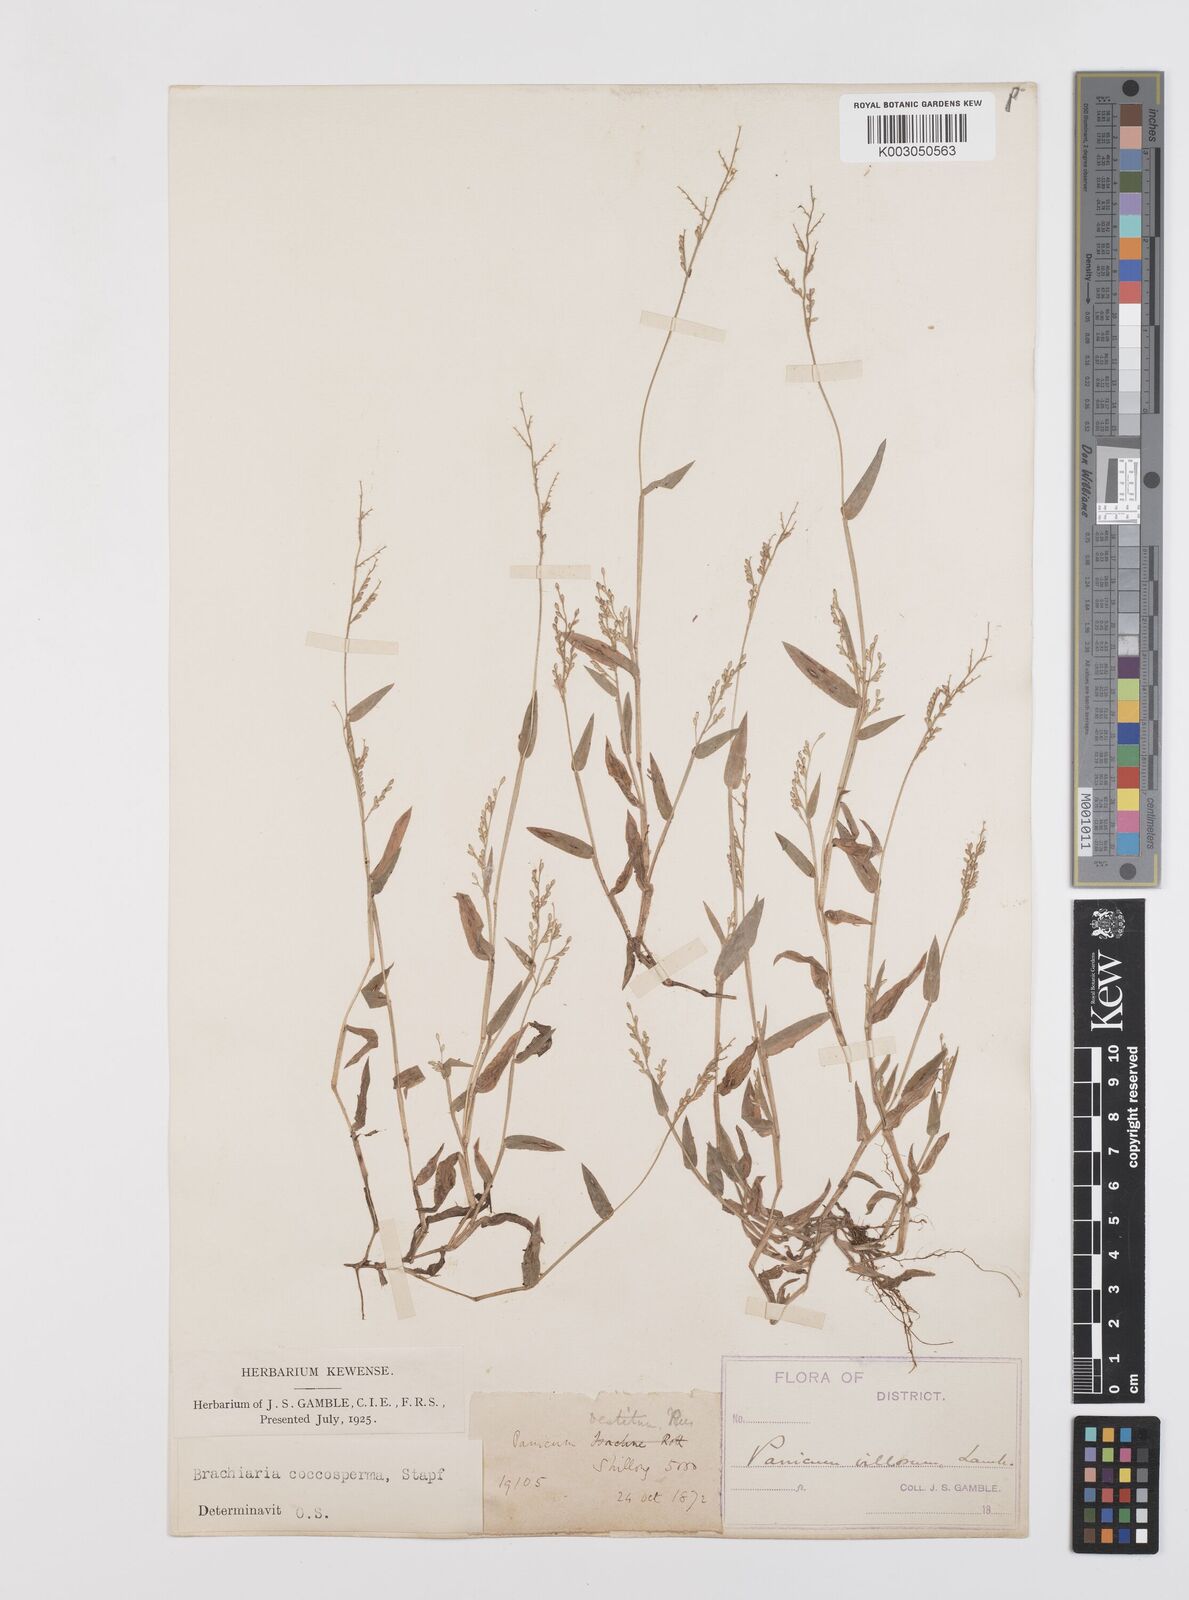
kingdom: Plantae
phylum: Tracheophyta
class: Liliopsida
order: Poales
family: Poaceae
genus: Urochloa
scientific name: Urochloa villosa
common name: Hairy signalgrass
